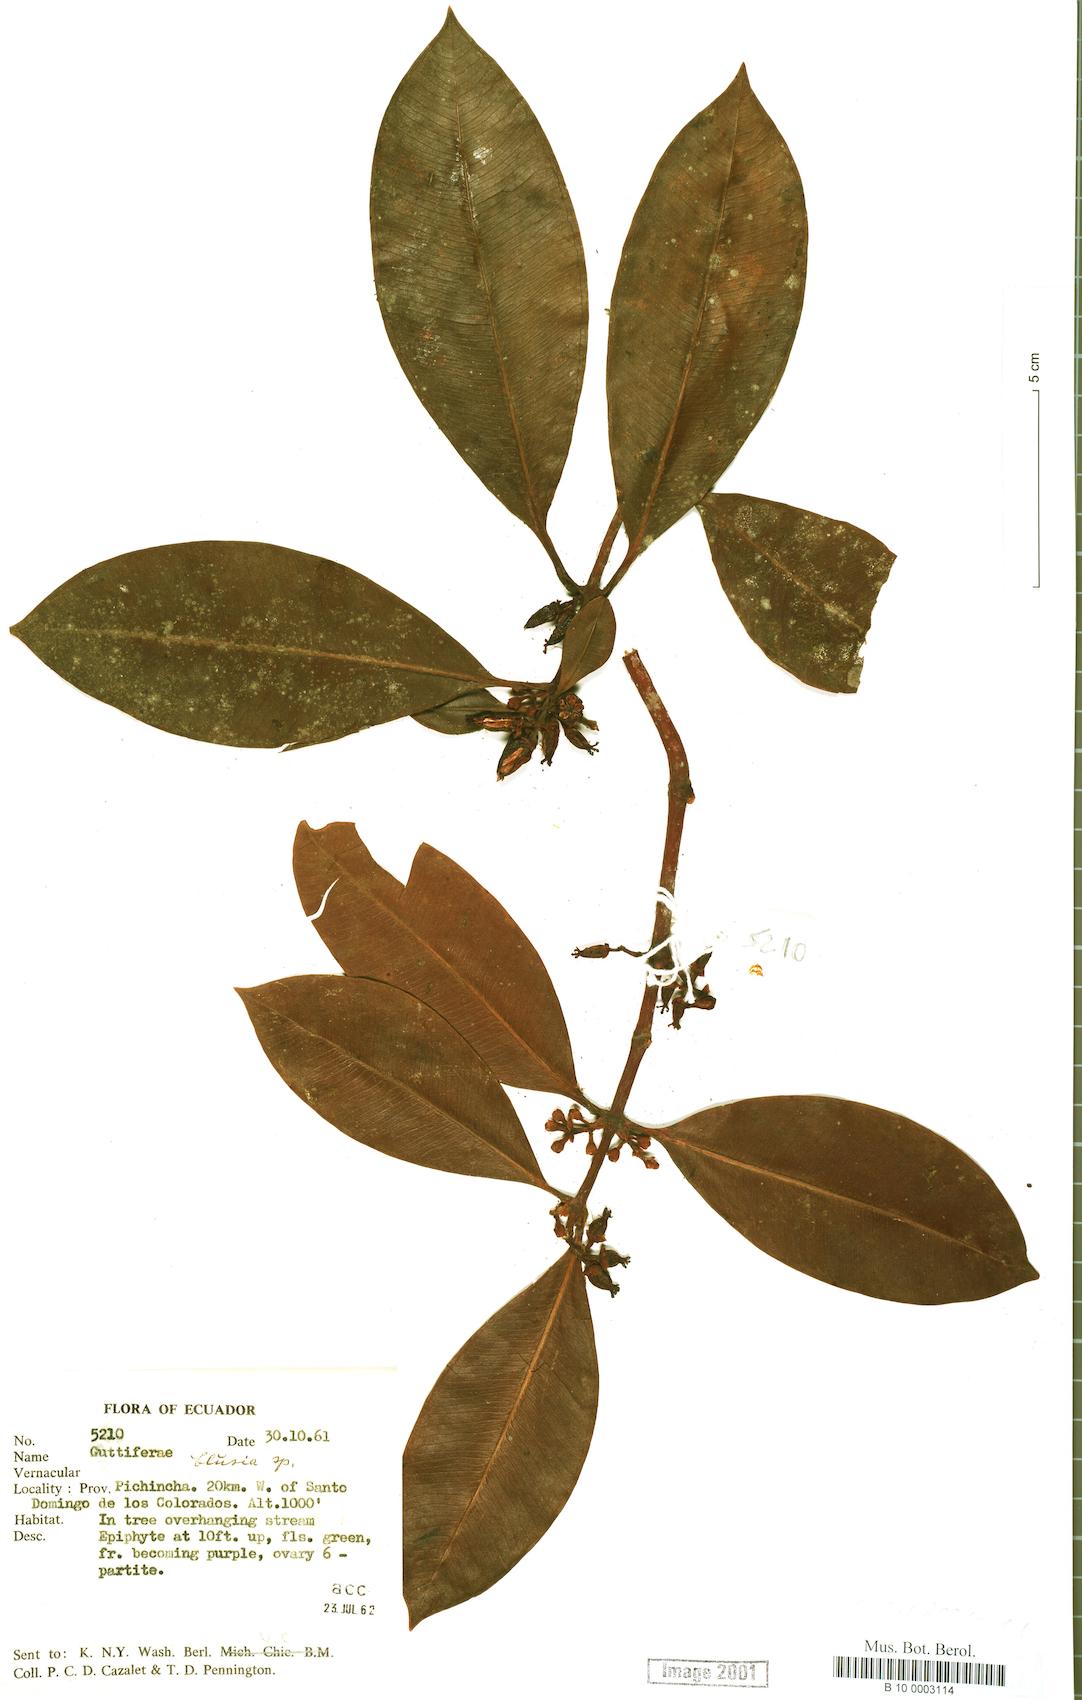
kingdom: Plantae
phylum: Tracheophyta
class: Magnoliopsida
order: Malpighiales
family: Clusiaceae
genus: Clusia
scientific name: Clusia
